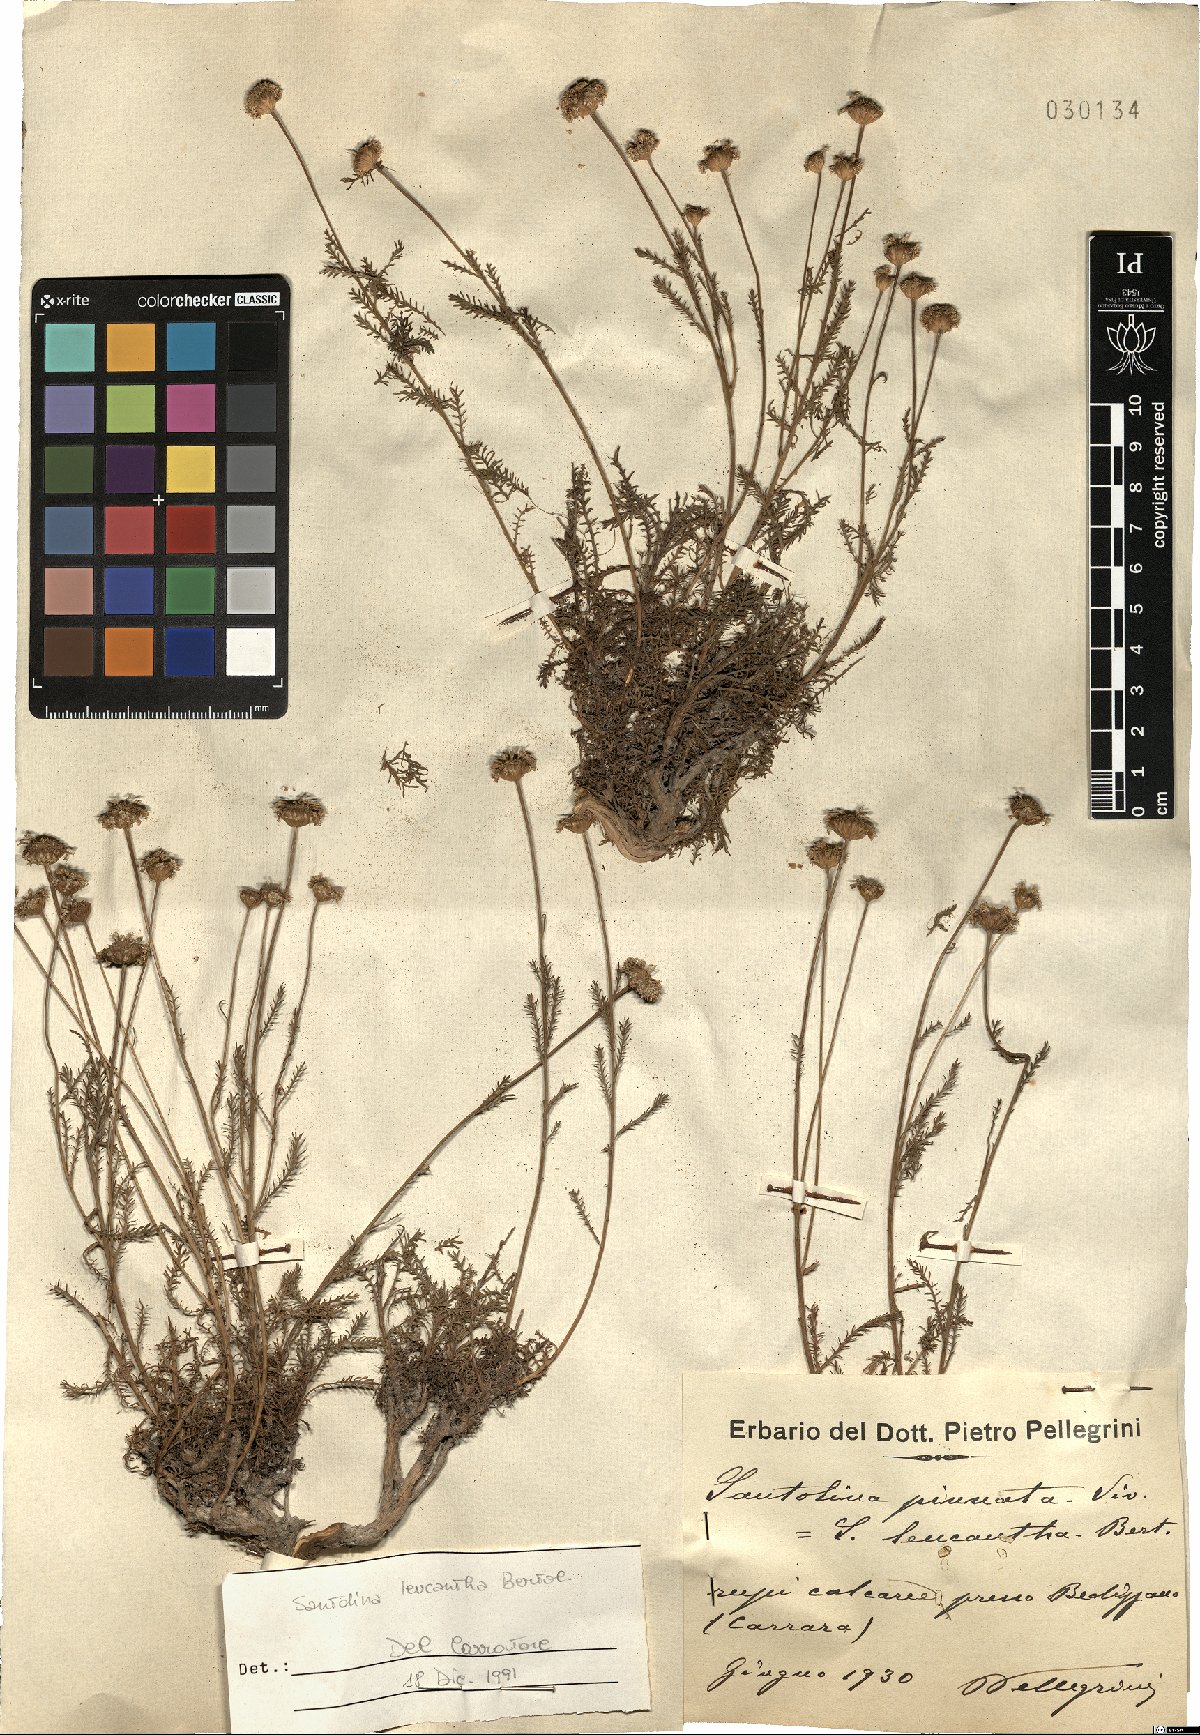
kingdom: Plantae
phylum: Tracheophyta
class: Magnoliopsida
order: Asterales
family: Asteraceae
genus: Santolina
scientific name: Santolina pinnata
